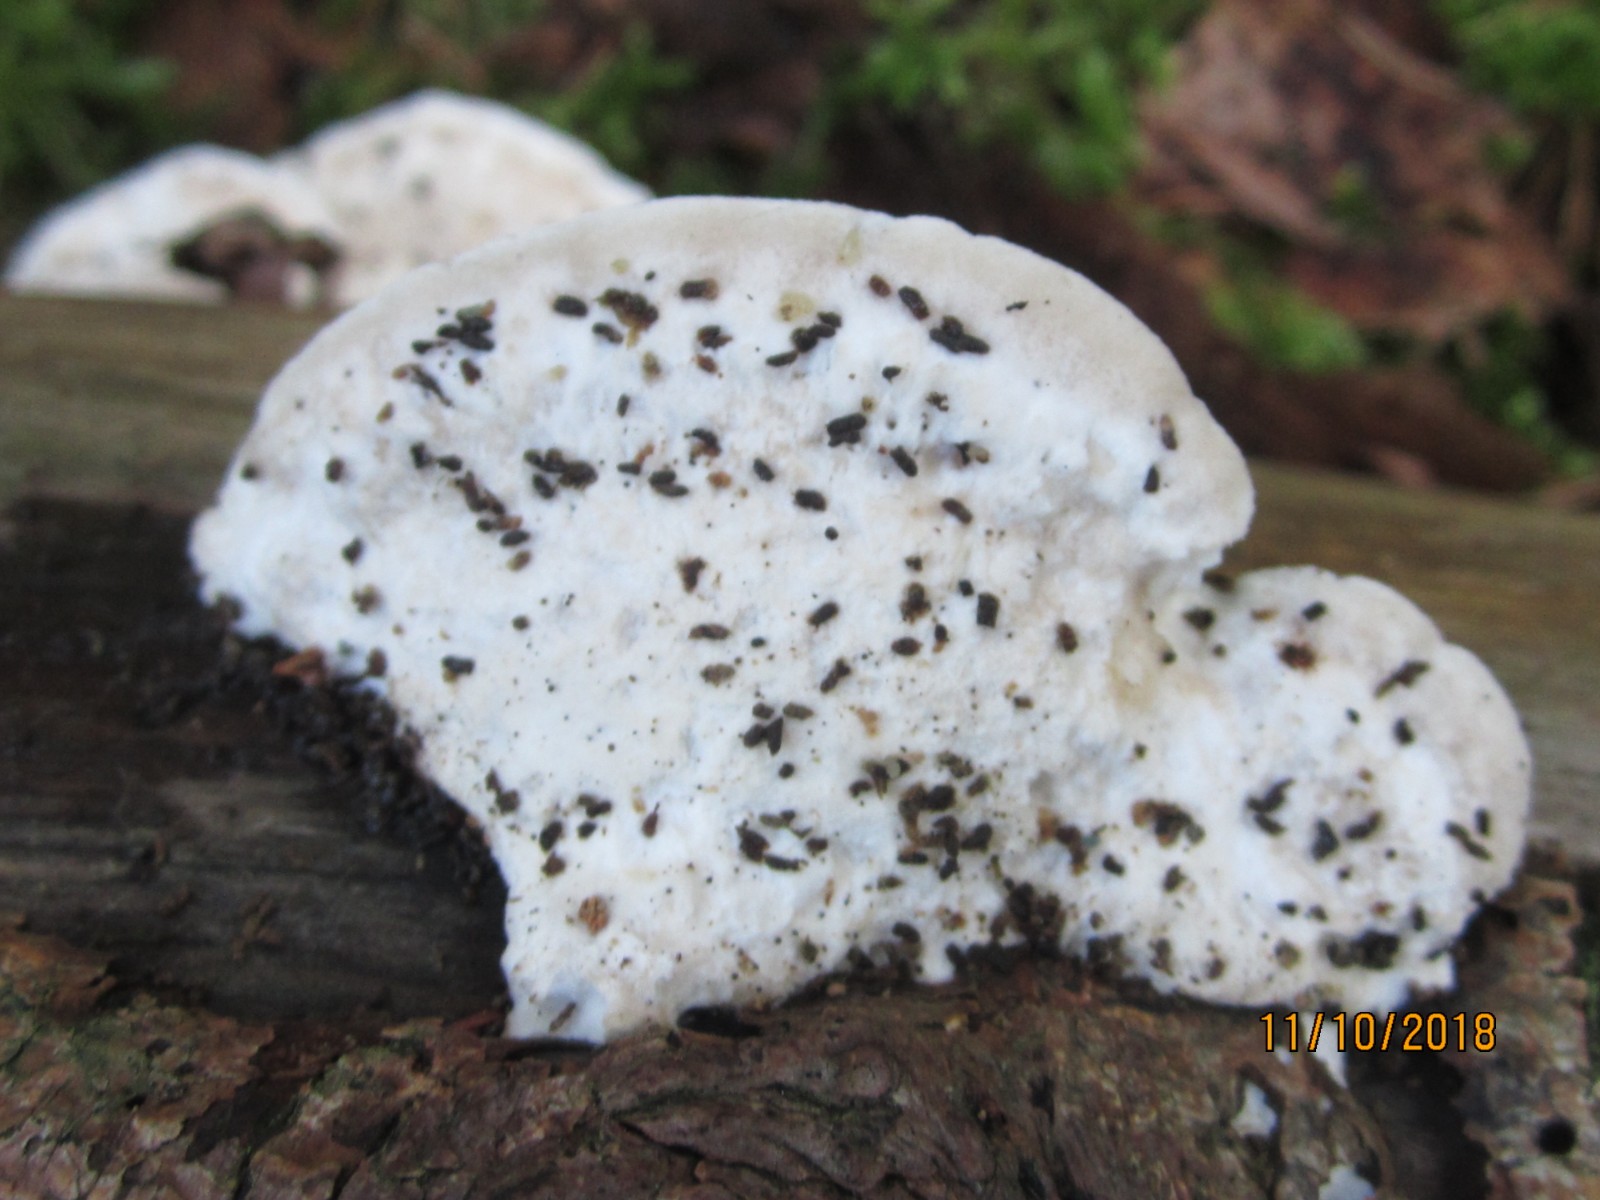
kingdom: Fungi
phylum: Basidiomycota
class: Agaricomycetes
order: Polyporales
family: Incrustoporiaceae
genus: Tyromyces
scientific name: Tyromyces lacteus
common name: mælkehvid kødporesvamp
